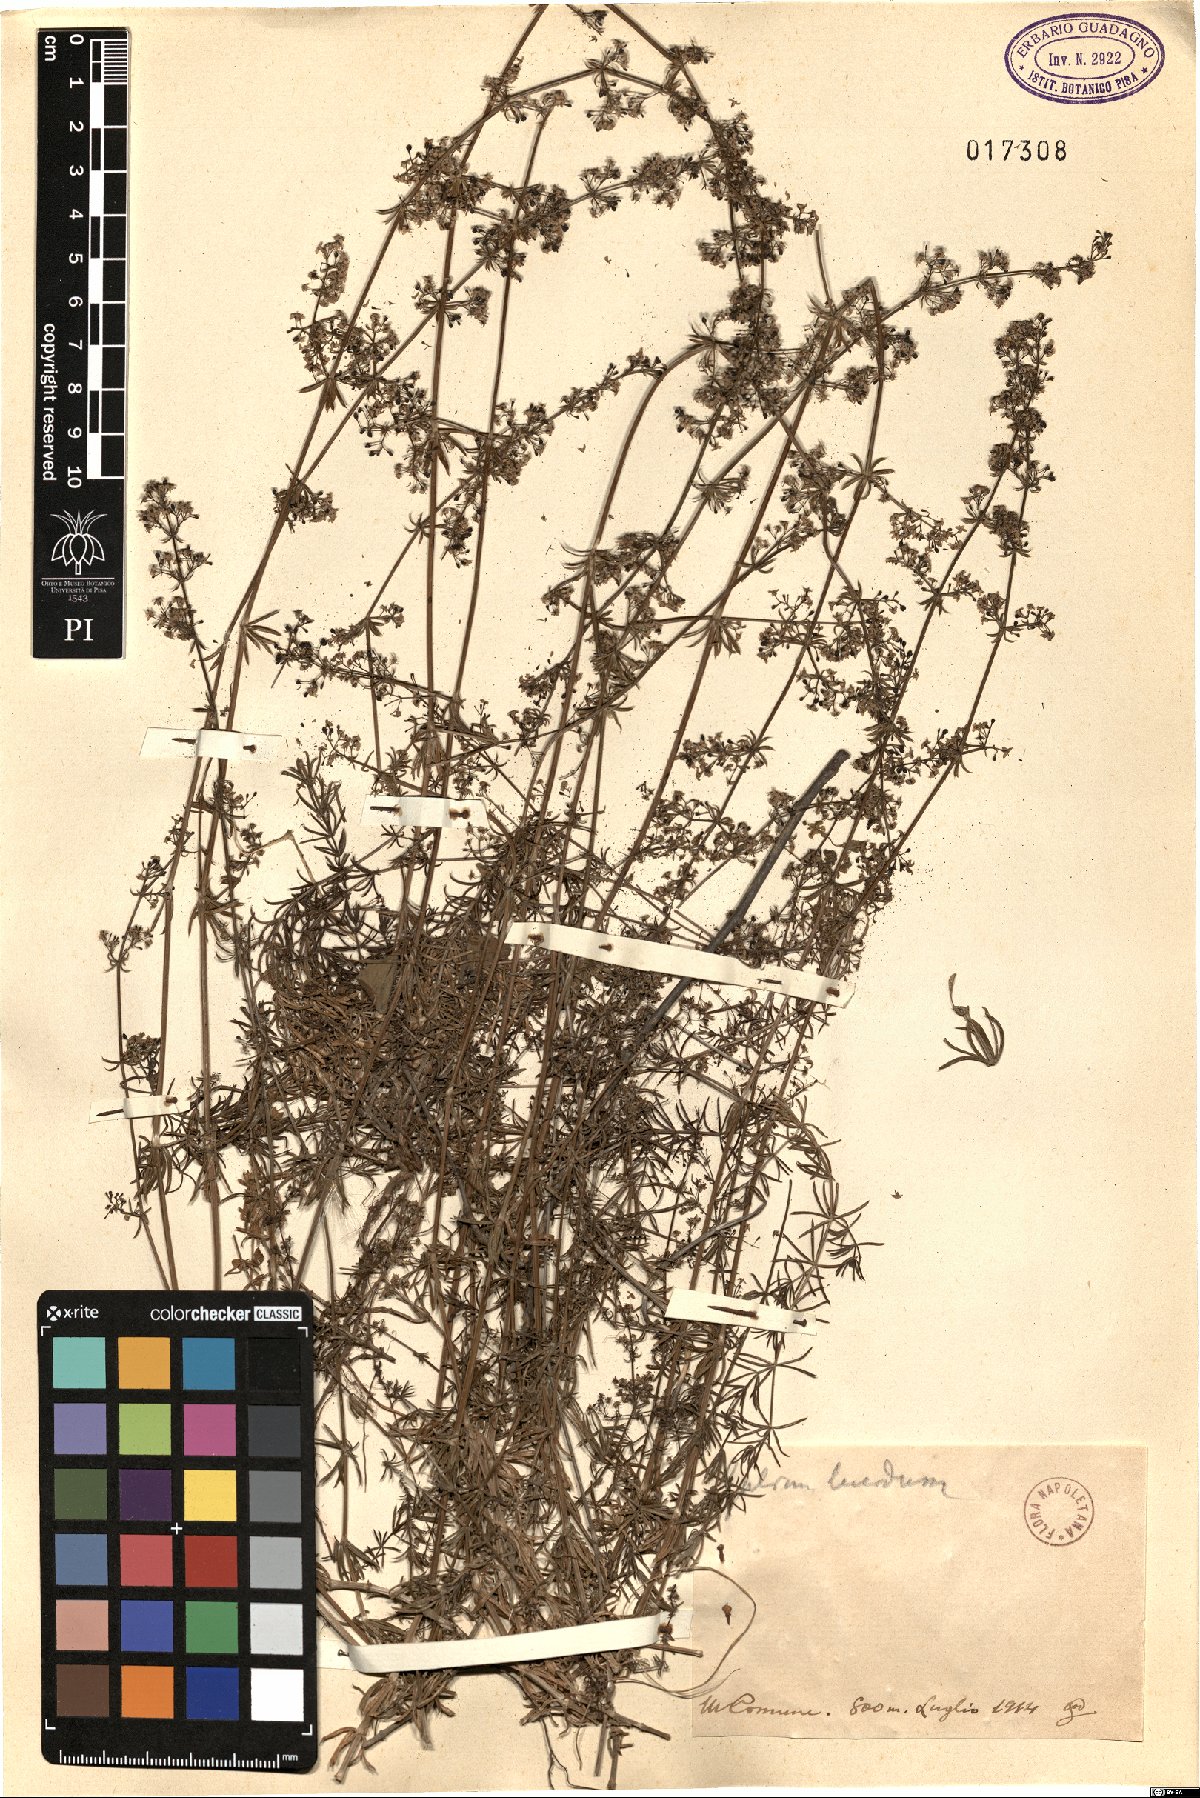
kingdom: Plantae
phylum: Tracheophyta
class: Magnoliopsida
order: Gentianales
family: Rubiaceae
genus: Galium
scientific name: Galium lucidum
